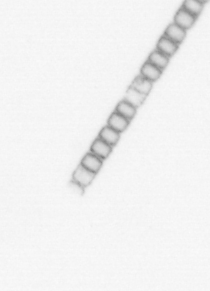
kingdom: Chromista
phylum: Ochrophyta
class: Bacillariophyceae
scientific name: Bacillariophyceae
